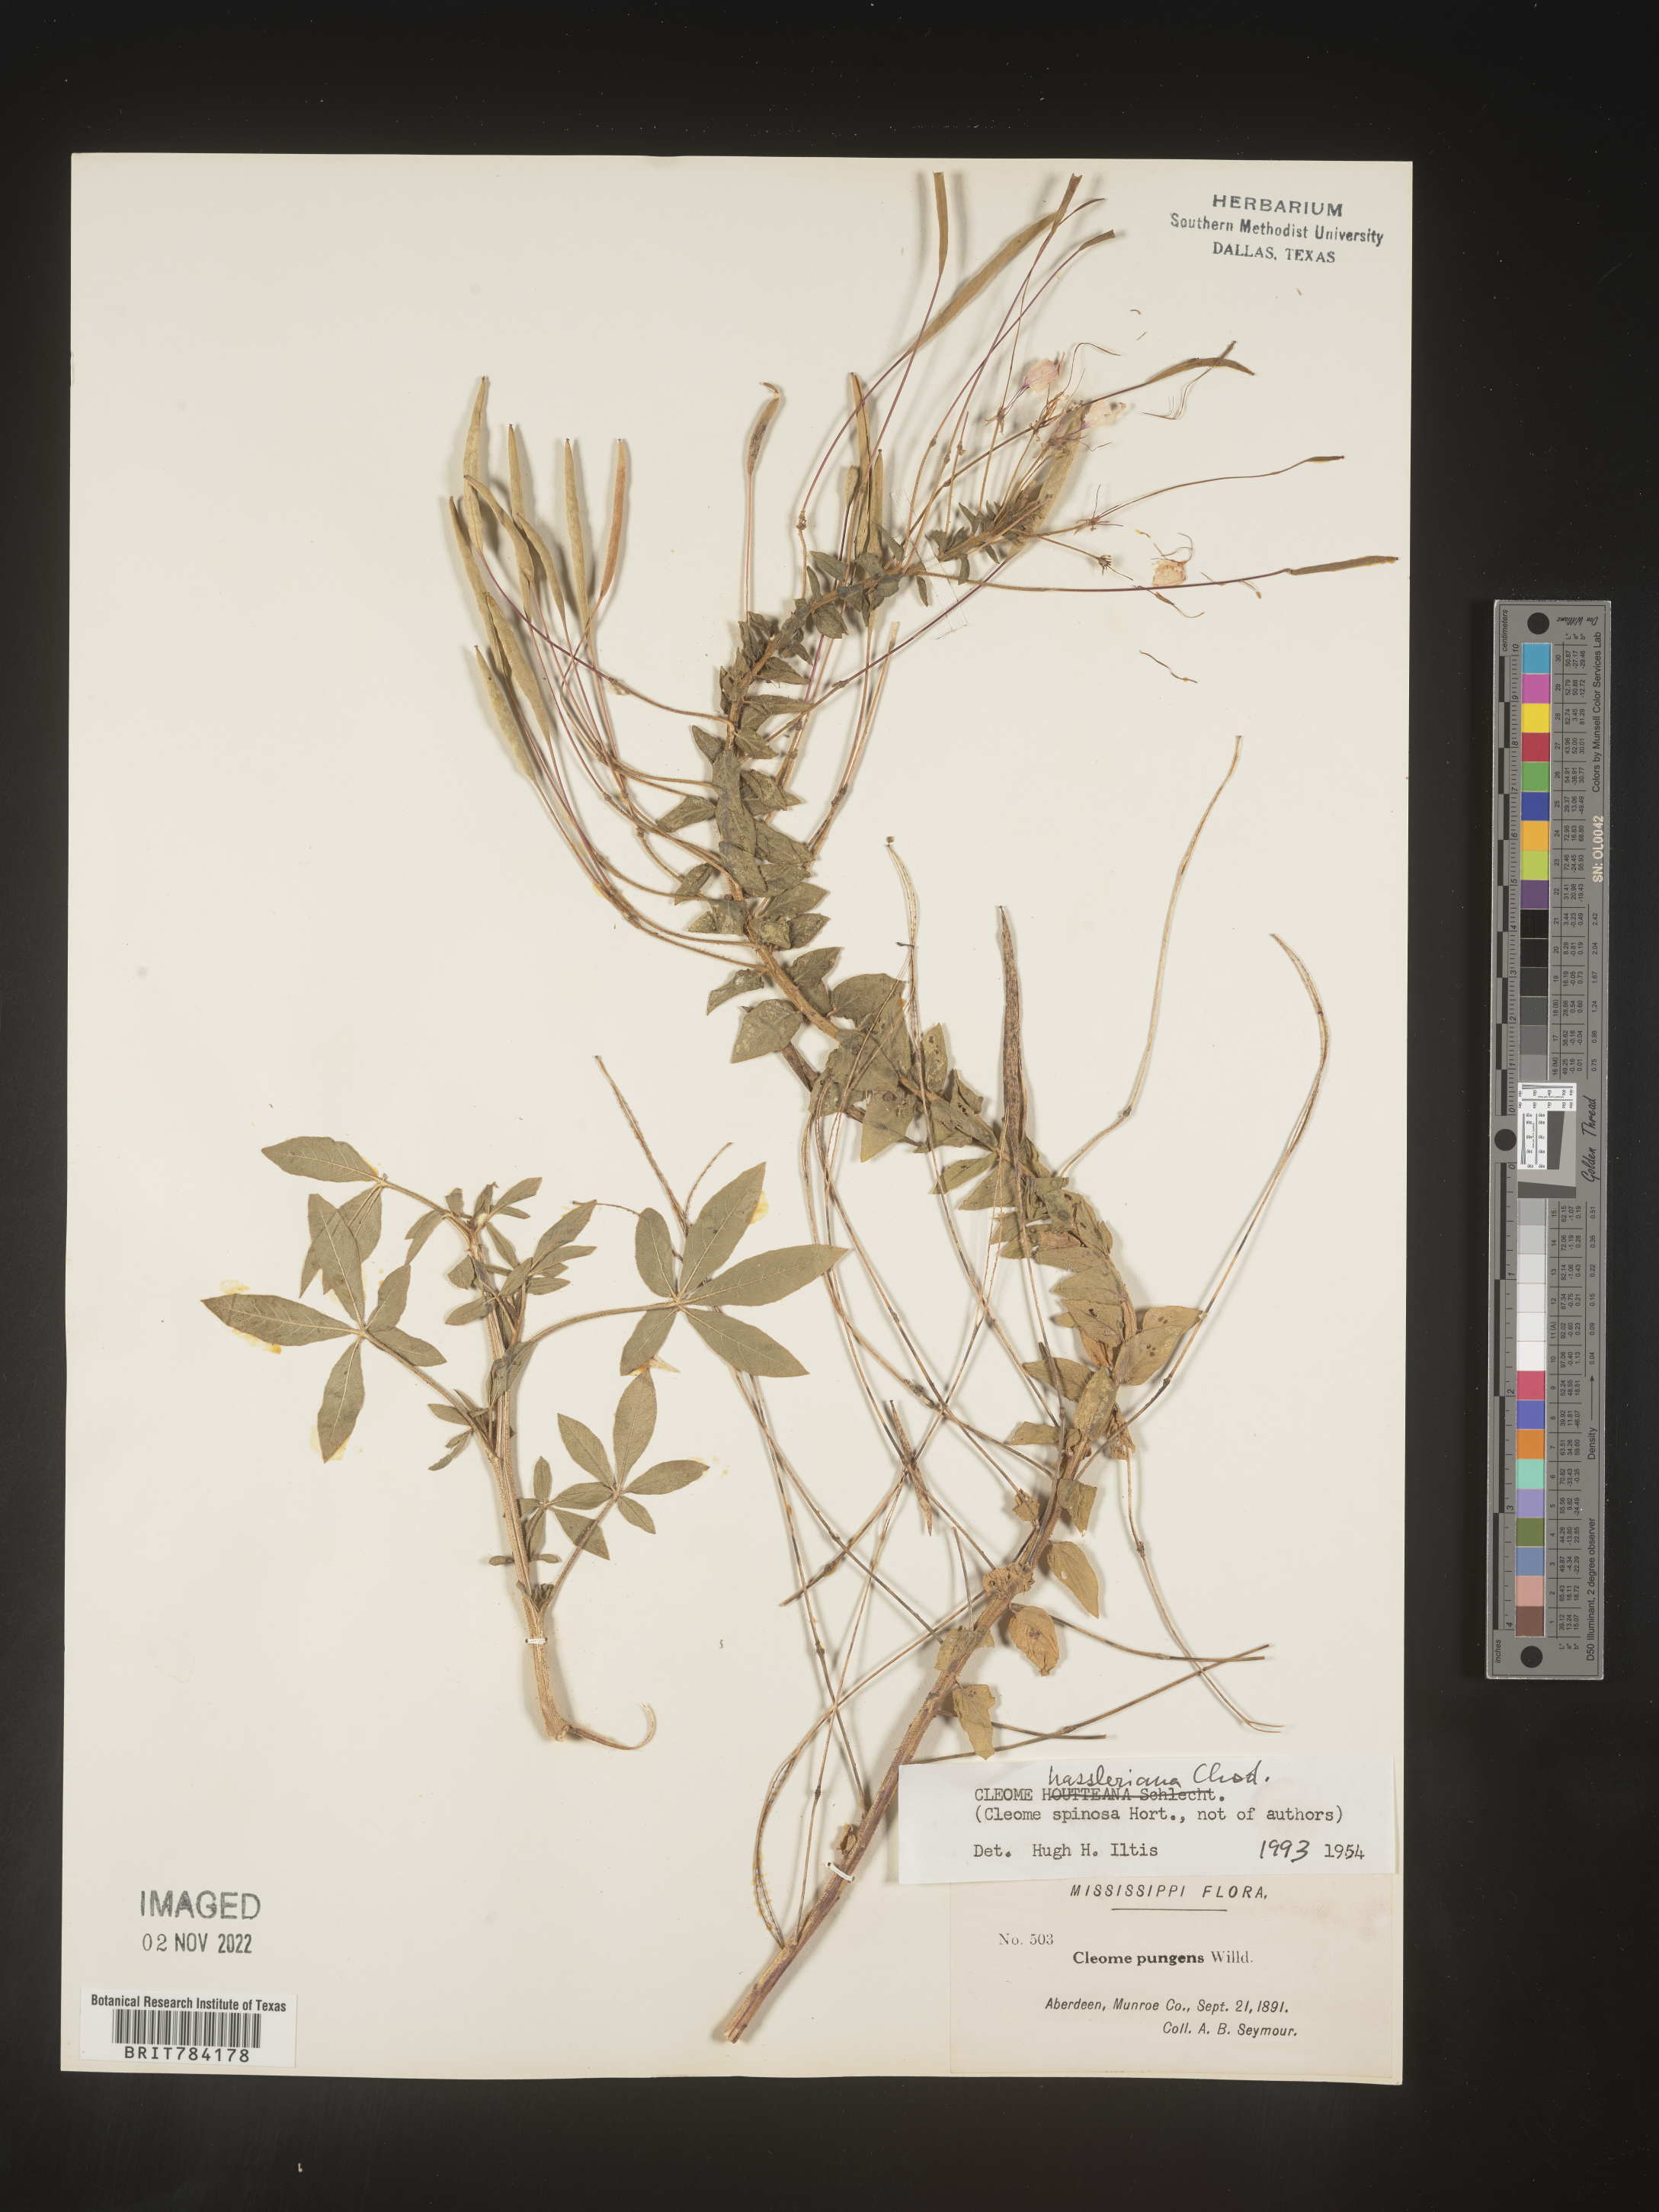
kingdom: Plantae
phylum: Tracheophyta
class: Magnoliopsida
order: Brassicales
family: Cleomaceae
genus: Cleome
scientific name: Cleome
